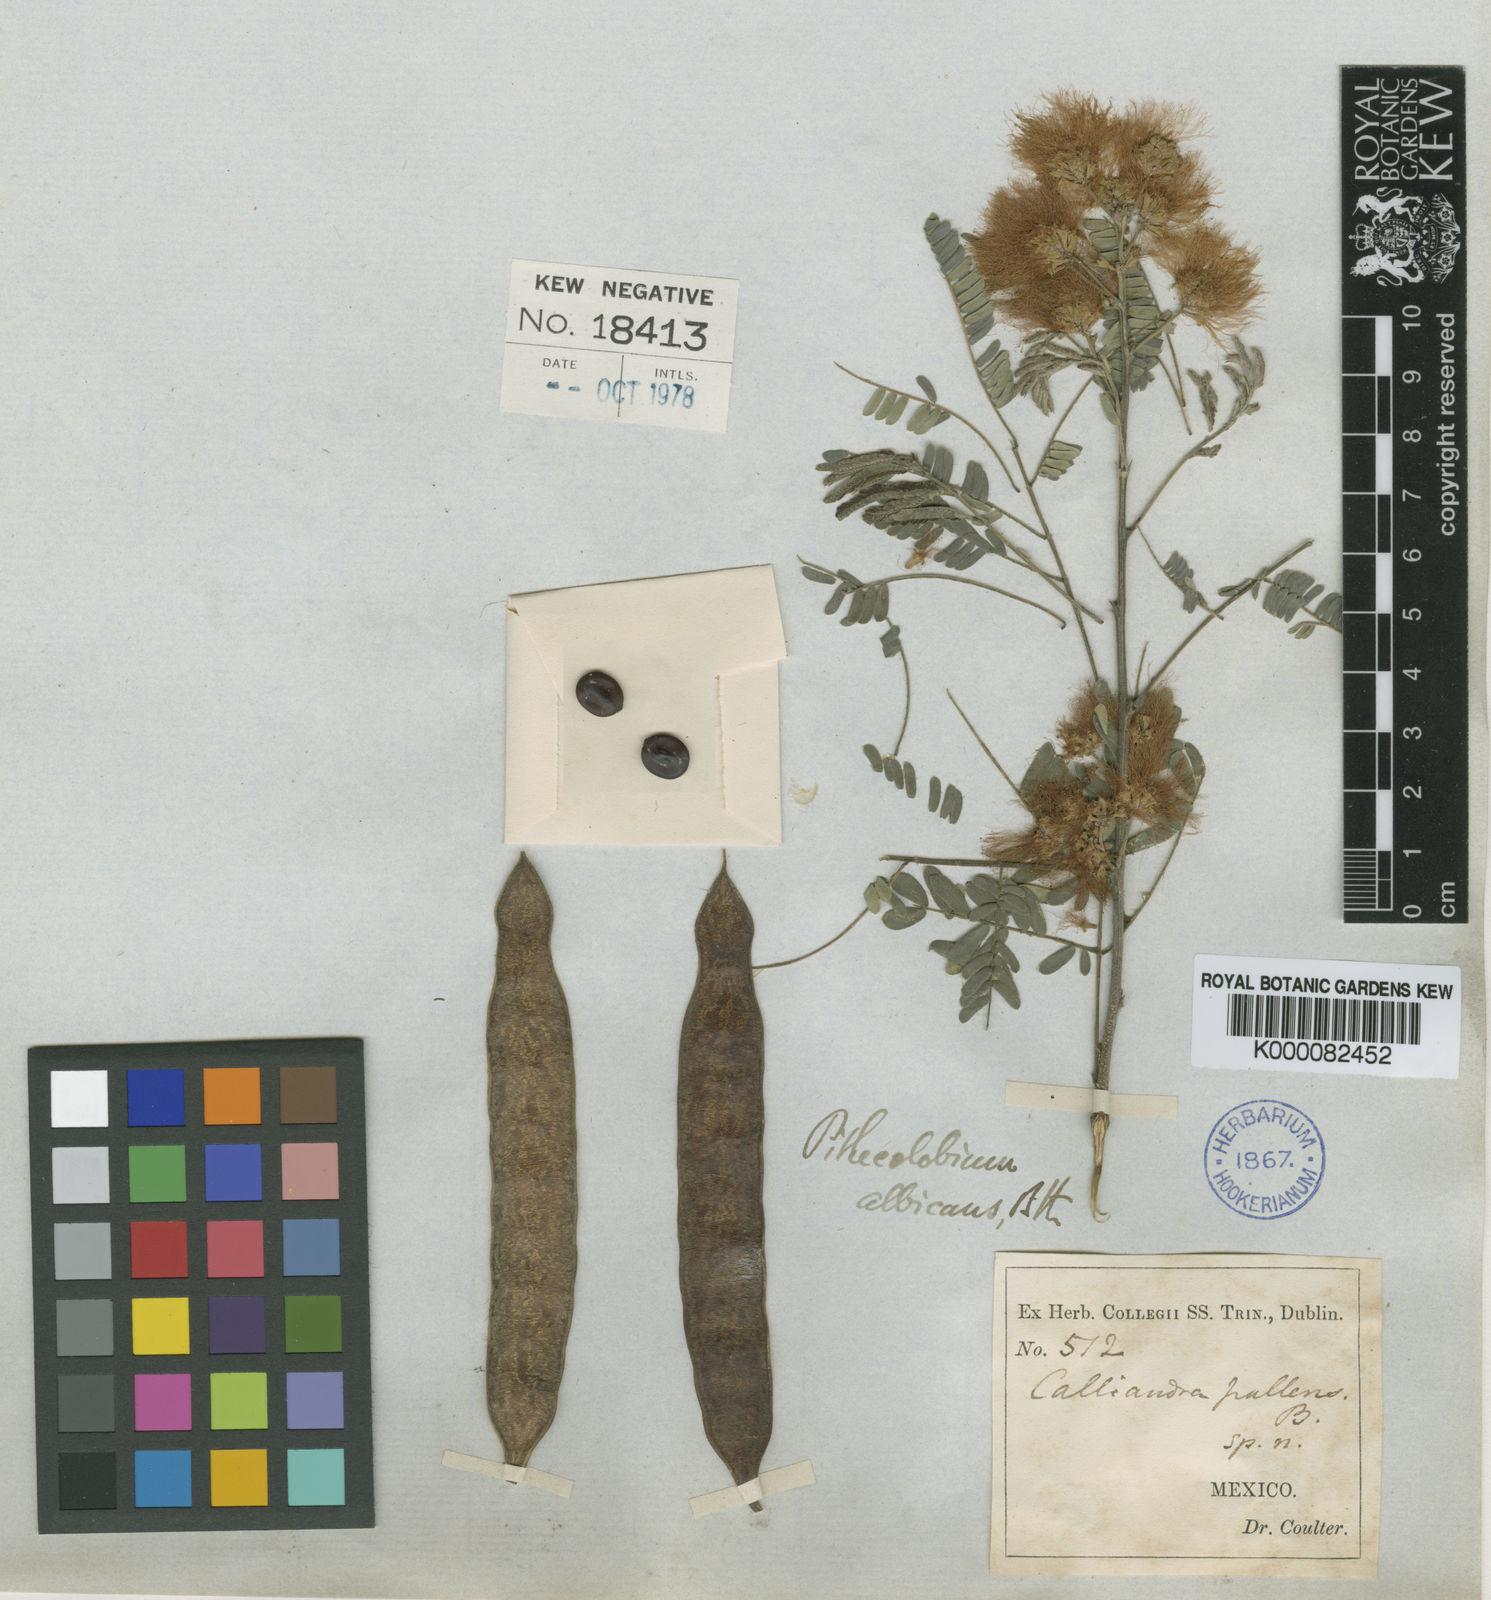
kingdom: Plantae
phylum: Tracheophyta
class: Magnoliopsida
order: Fabales
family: Fabaceae
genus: Havardia
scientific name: Havardia pallens
